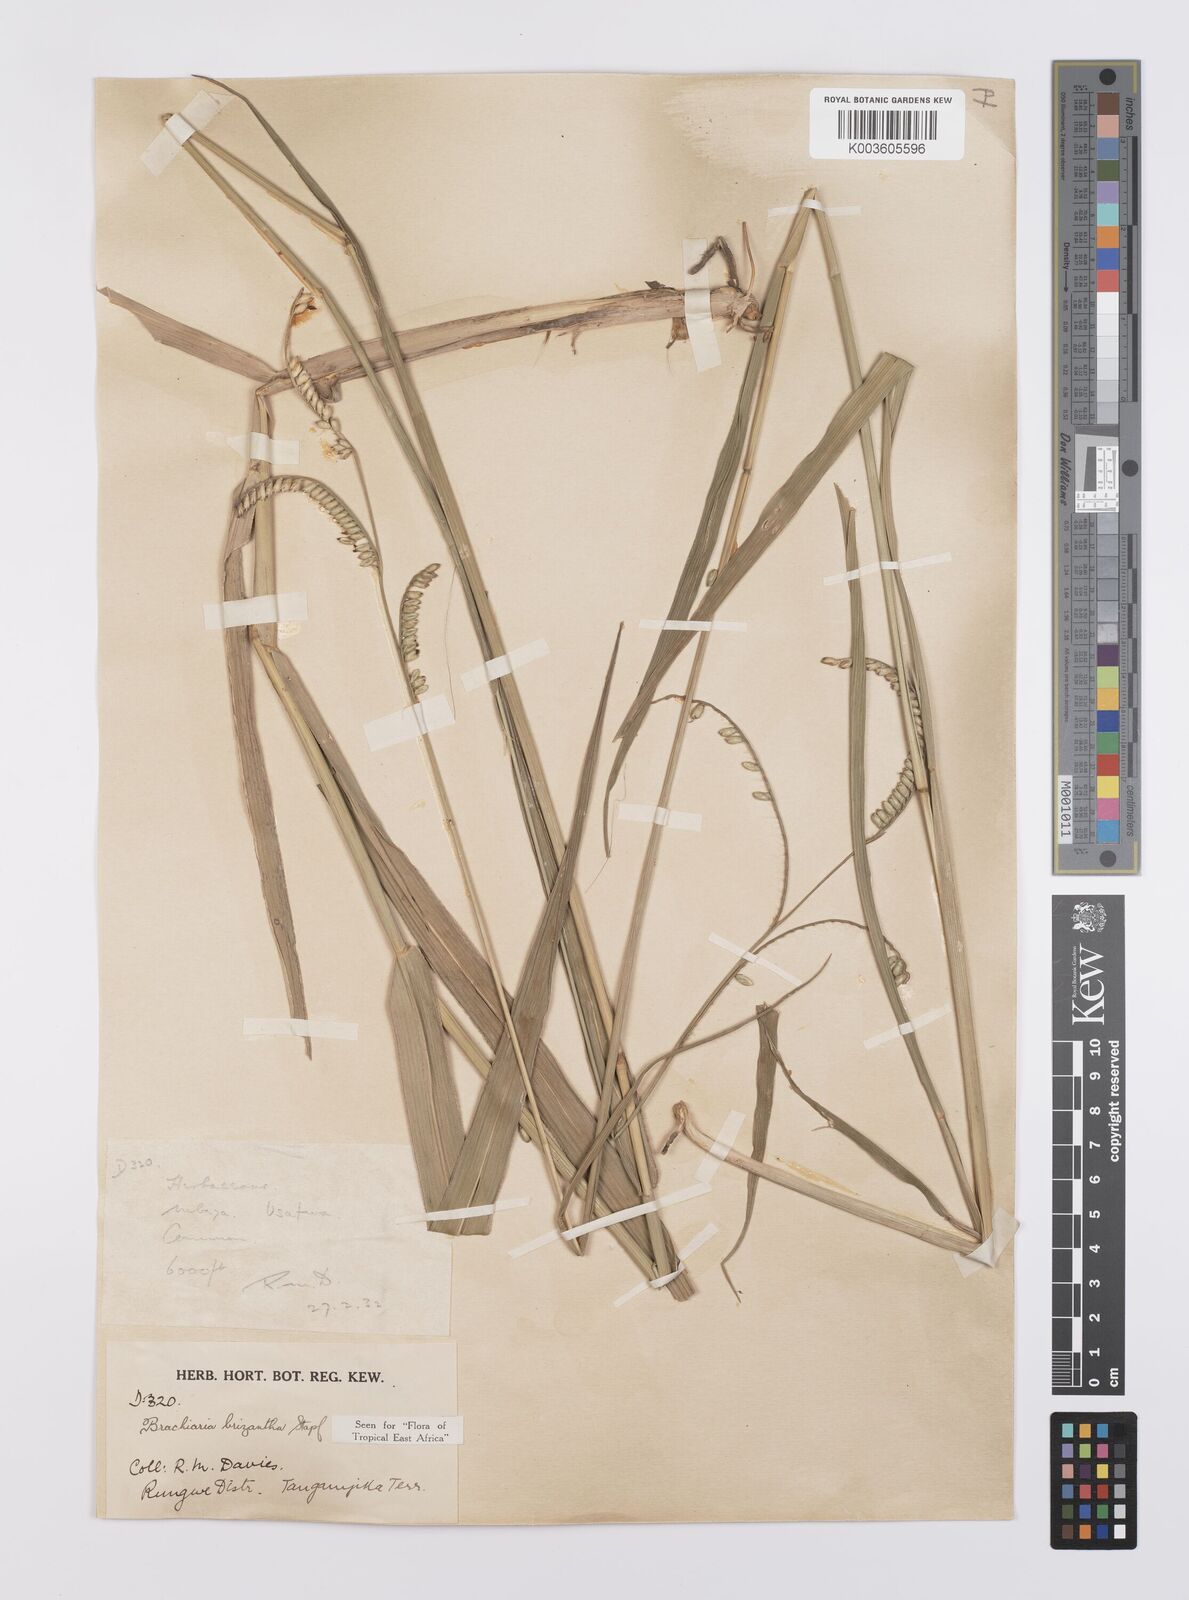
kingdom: Plantae
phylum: Tracheophyta
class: Liliopsida
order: Poales
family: Poaceae
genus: Urochloa
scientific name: Urochloa brizantha
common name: Palisade signalgrass
